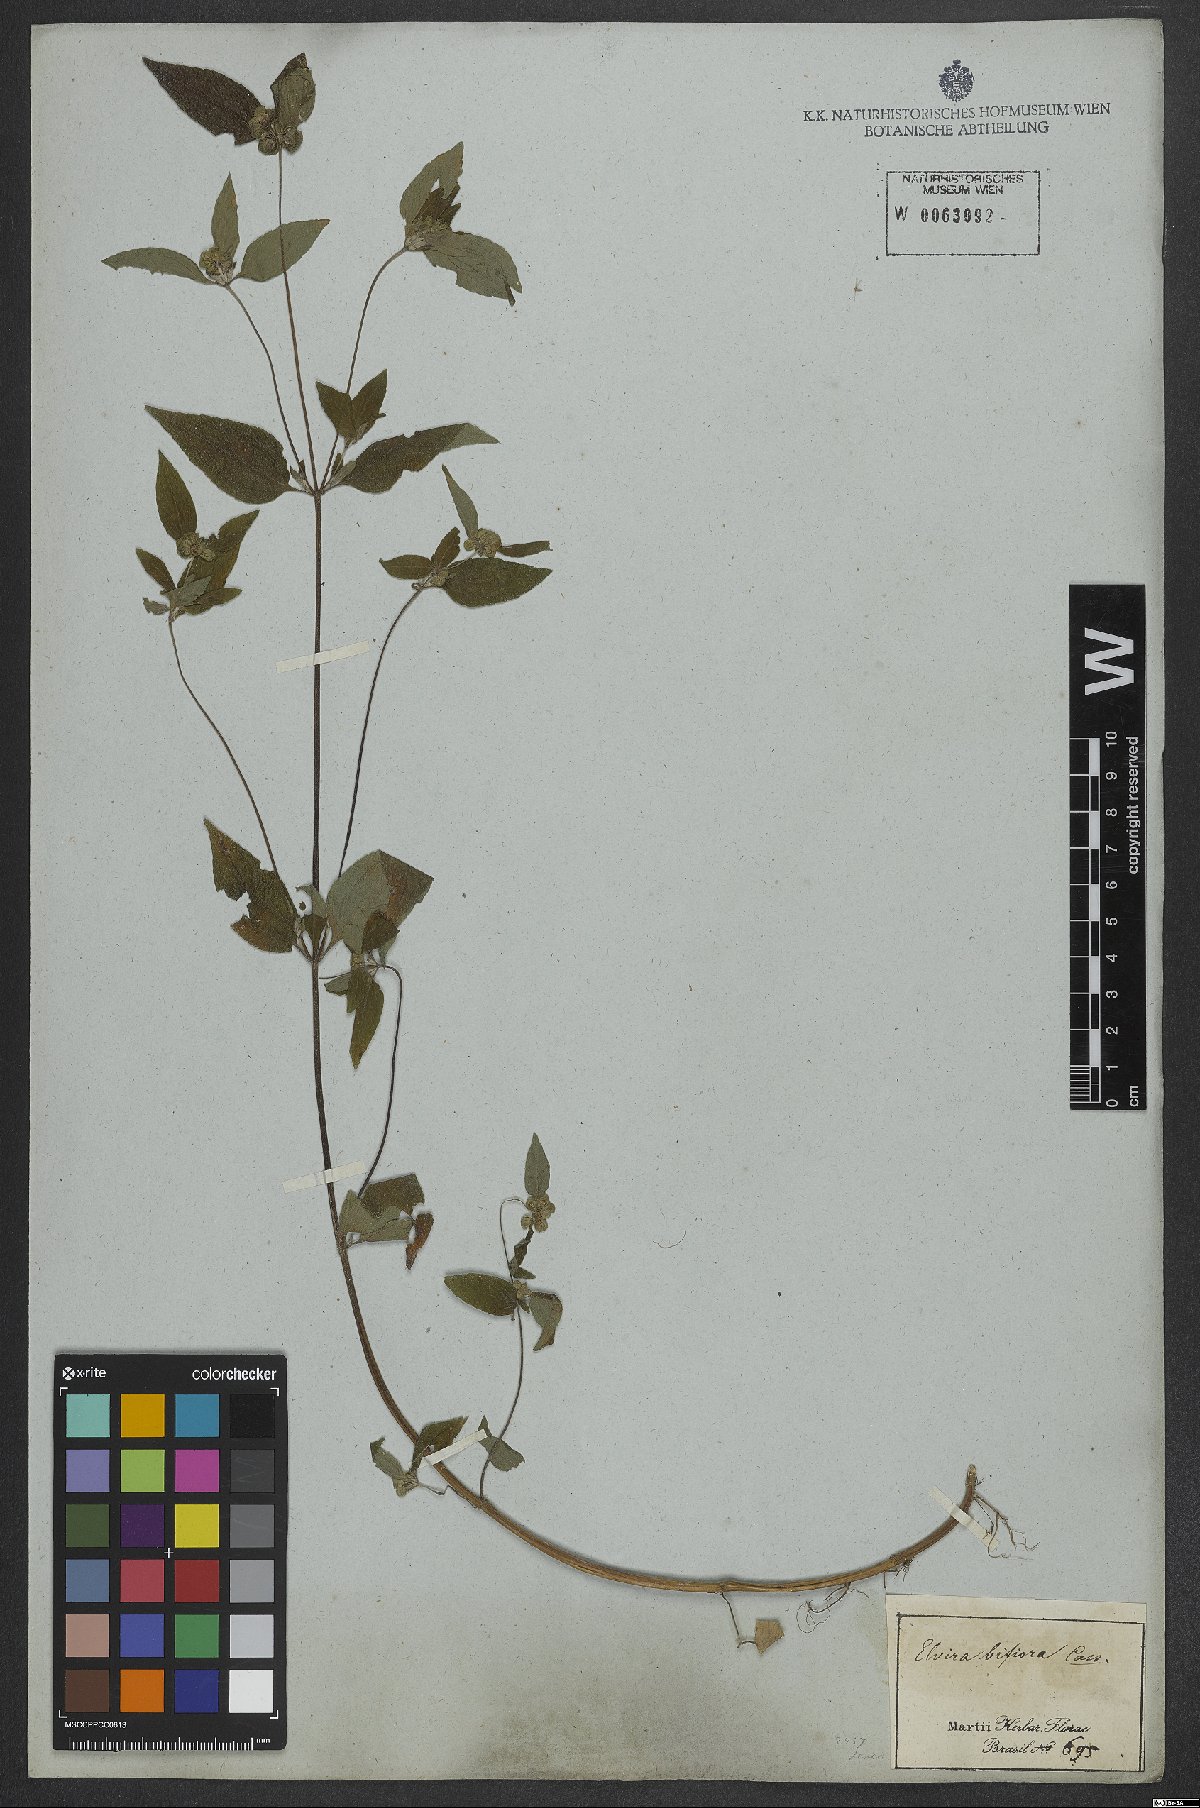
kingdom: Plantae
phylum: Tracheophyta
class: Magnoliopsida
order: Asterales
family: Asteraceae
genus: Delilia
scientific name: Delilia biflora
